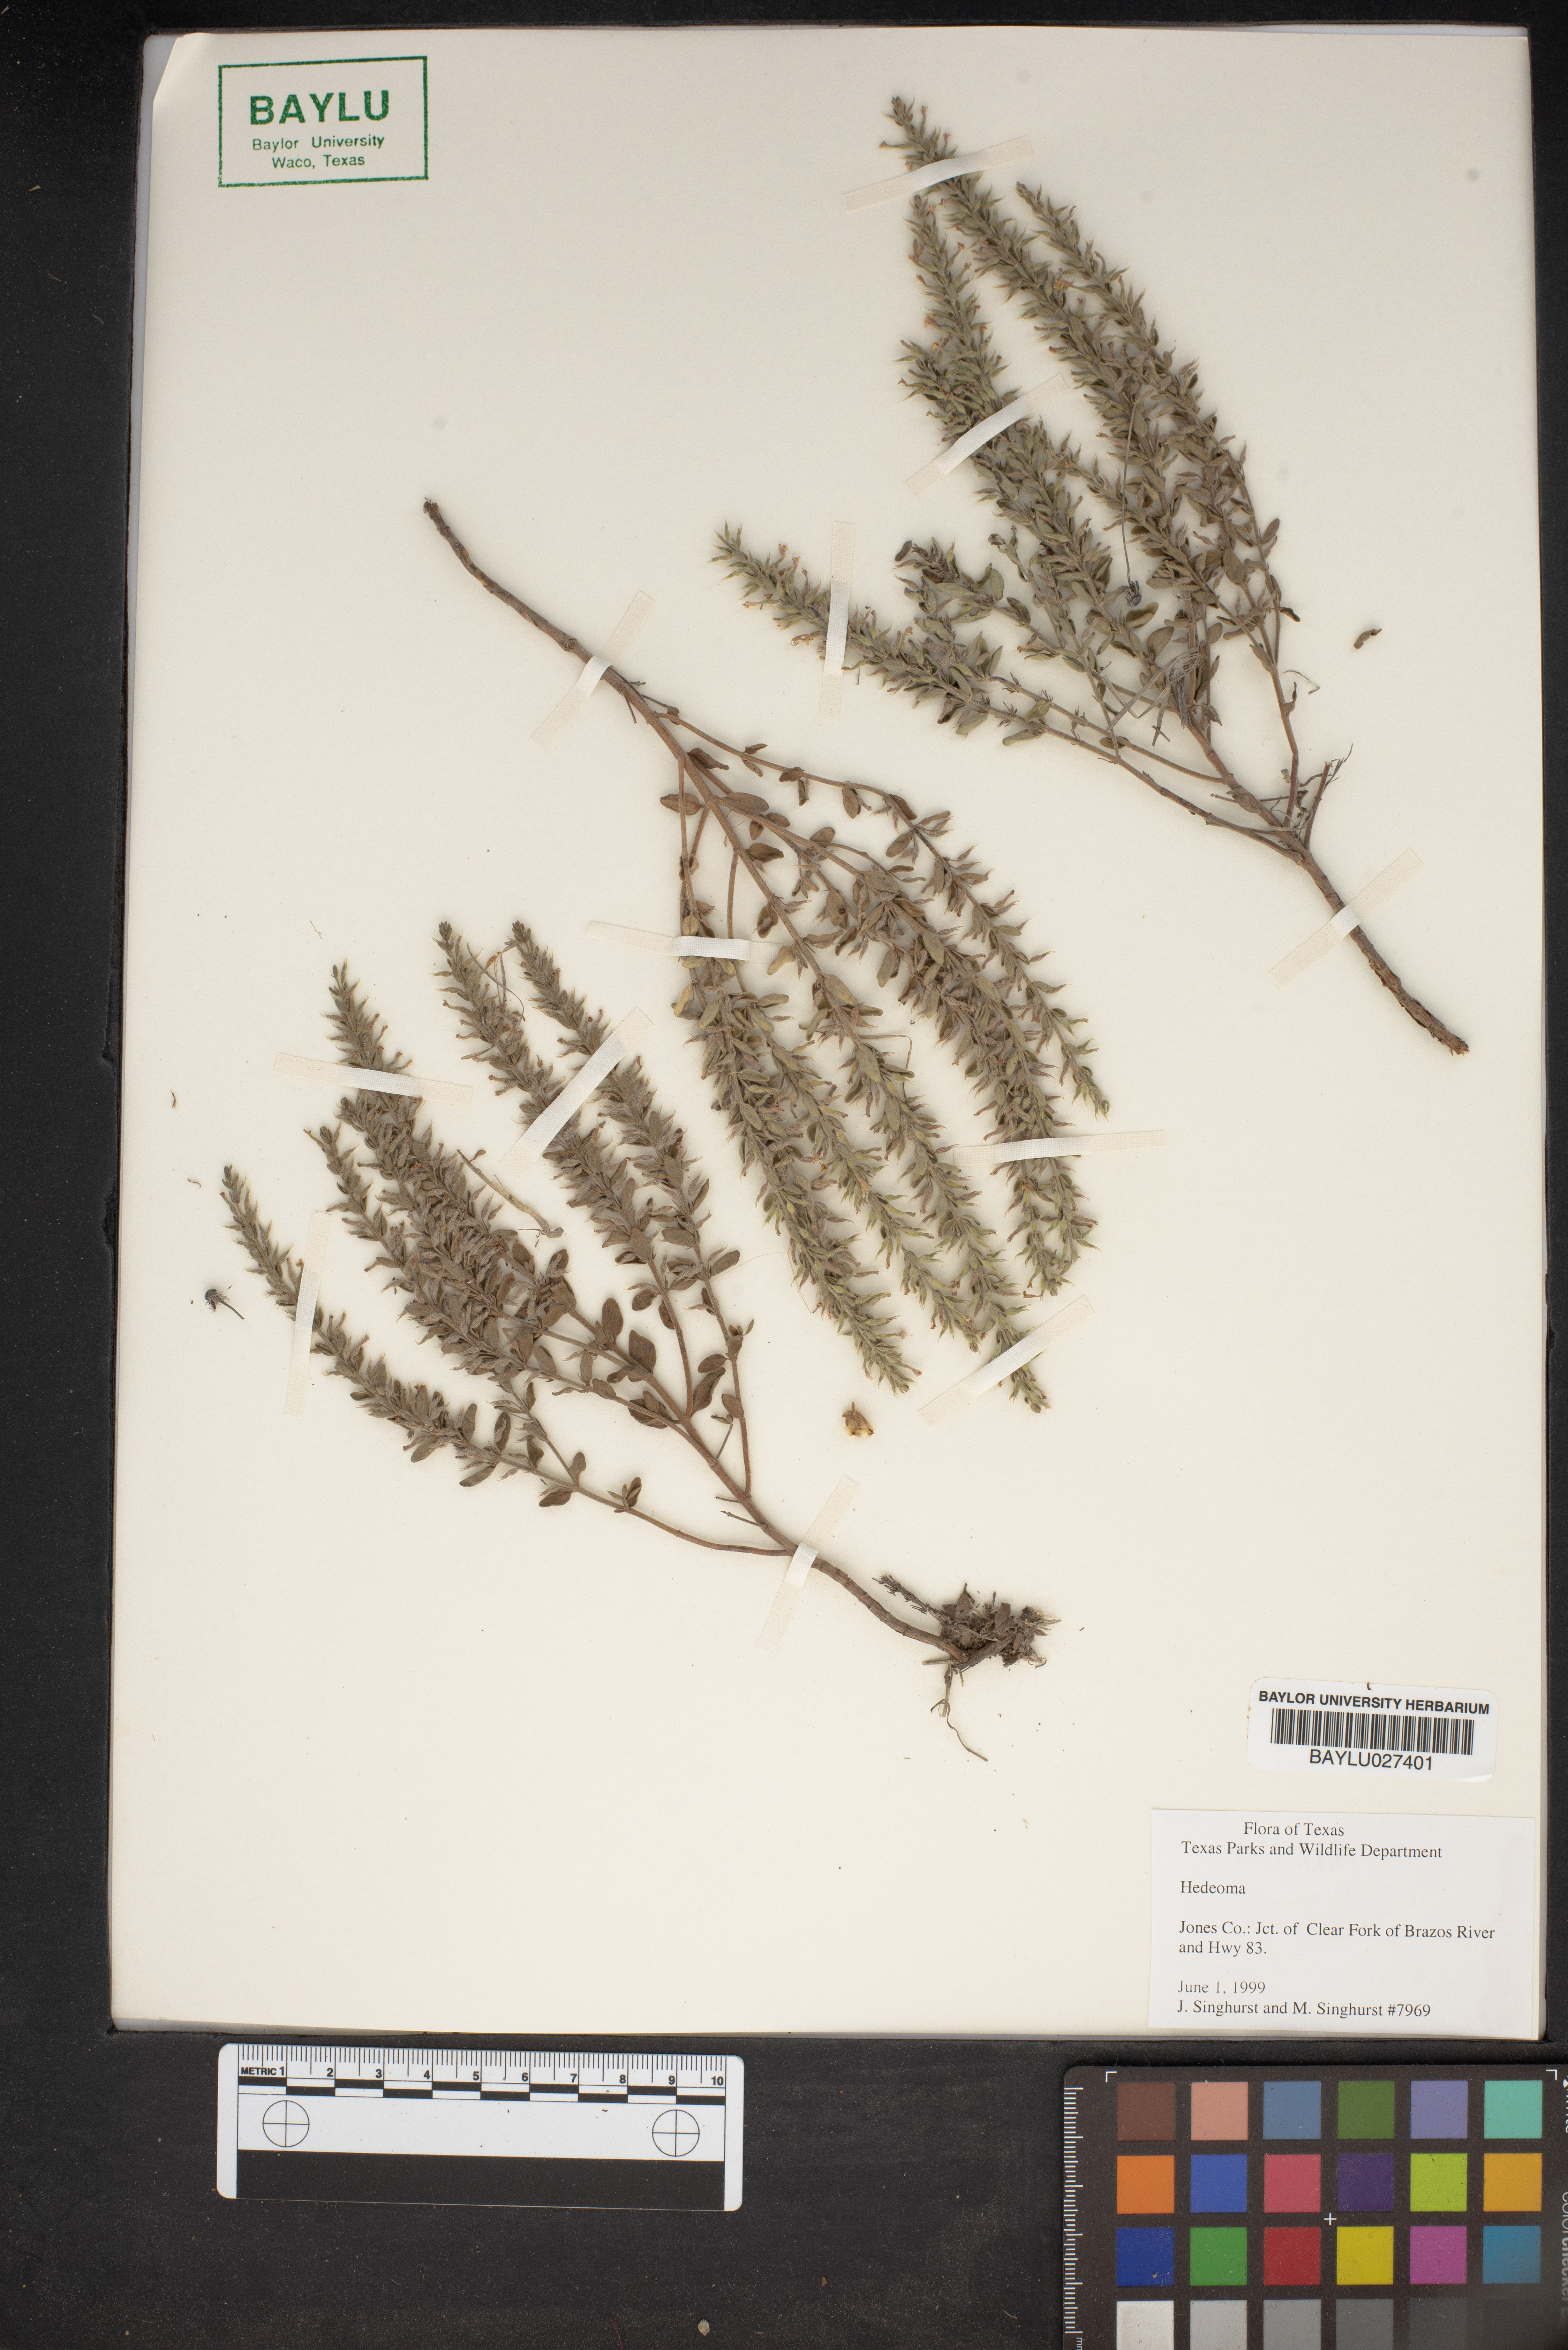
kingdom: Plantae
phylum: Tracheophyta
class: Magnoliopsida
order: Lamiales
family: Lamiaceae
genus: Hedeoma
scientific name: Hedeoma
